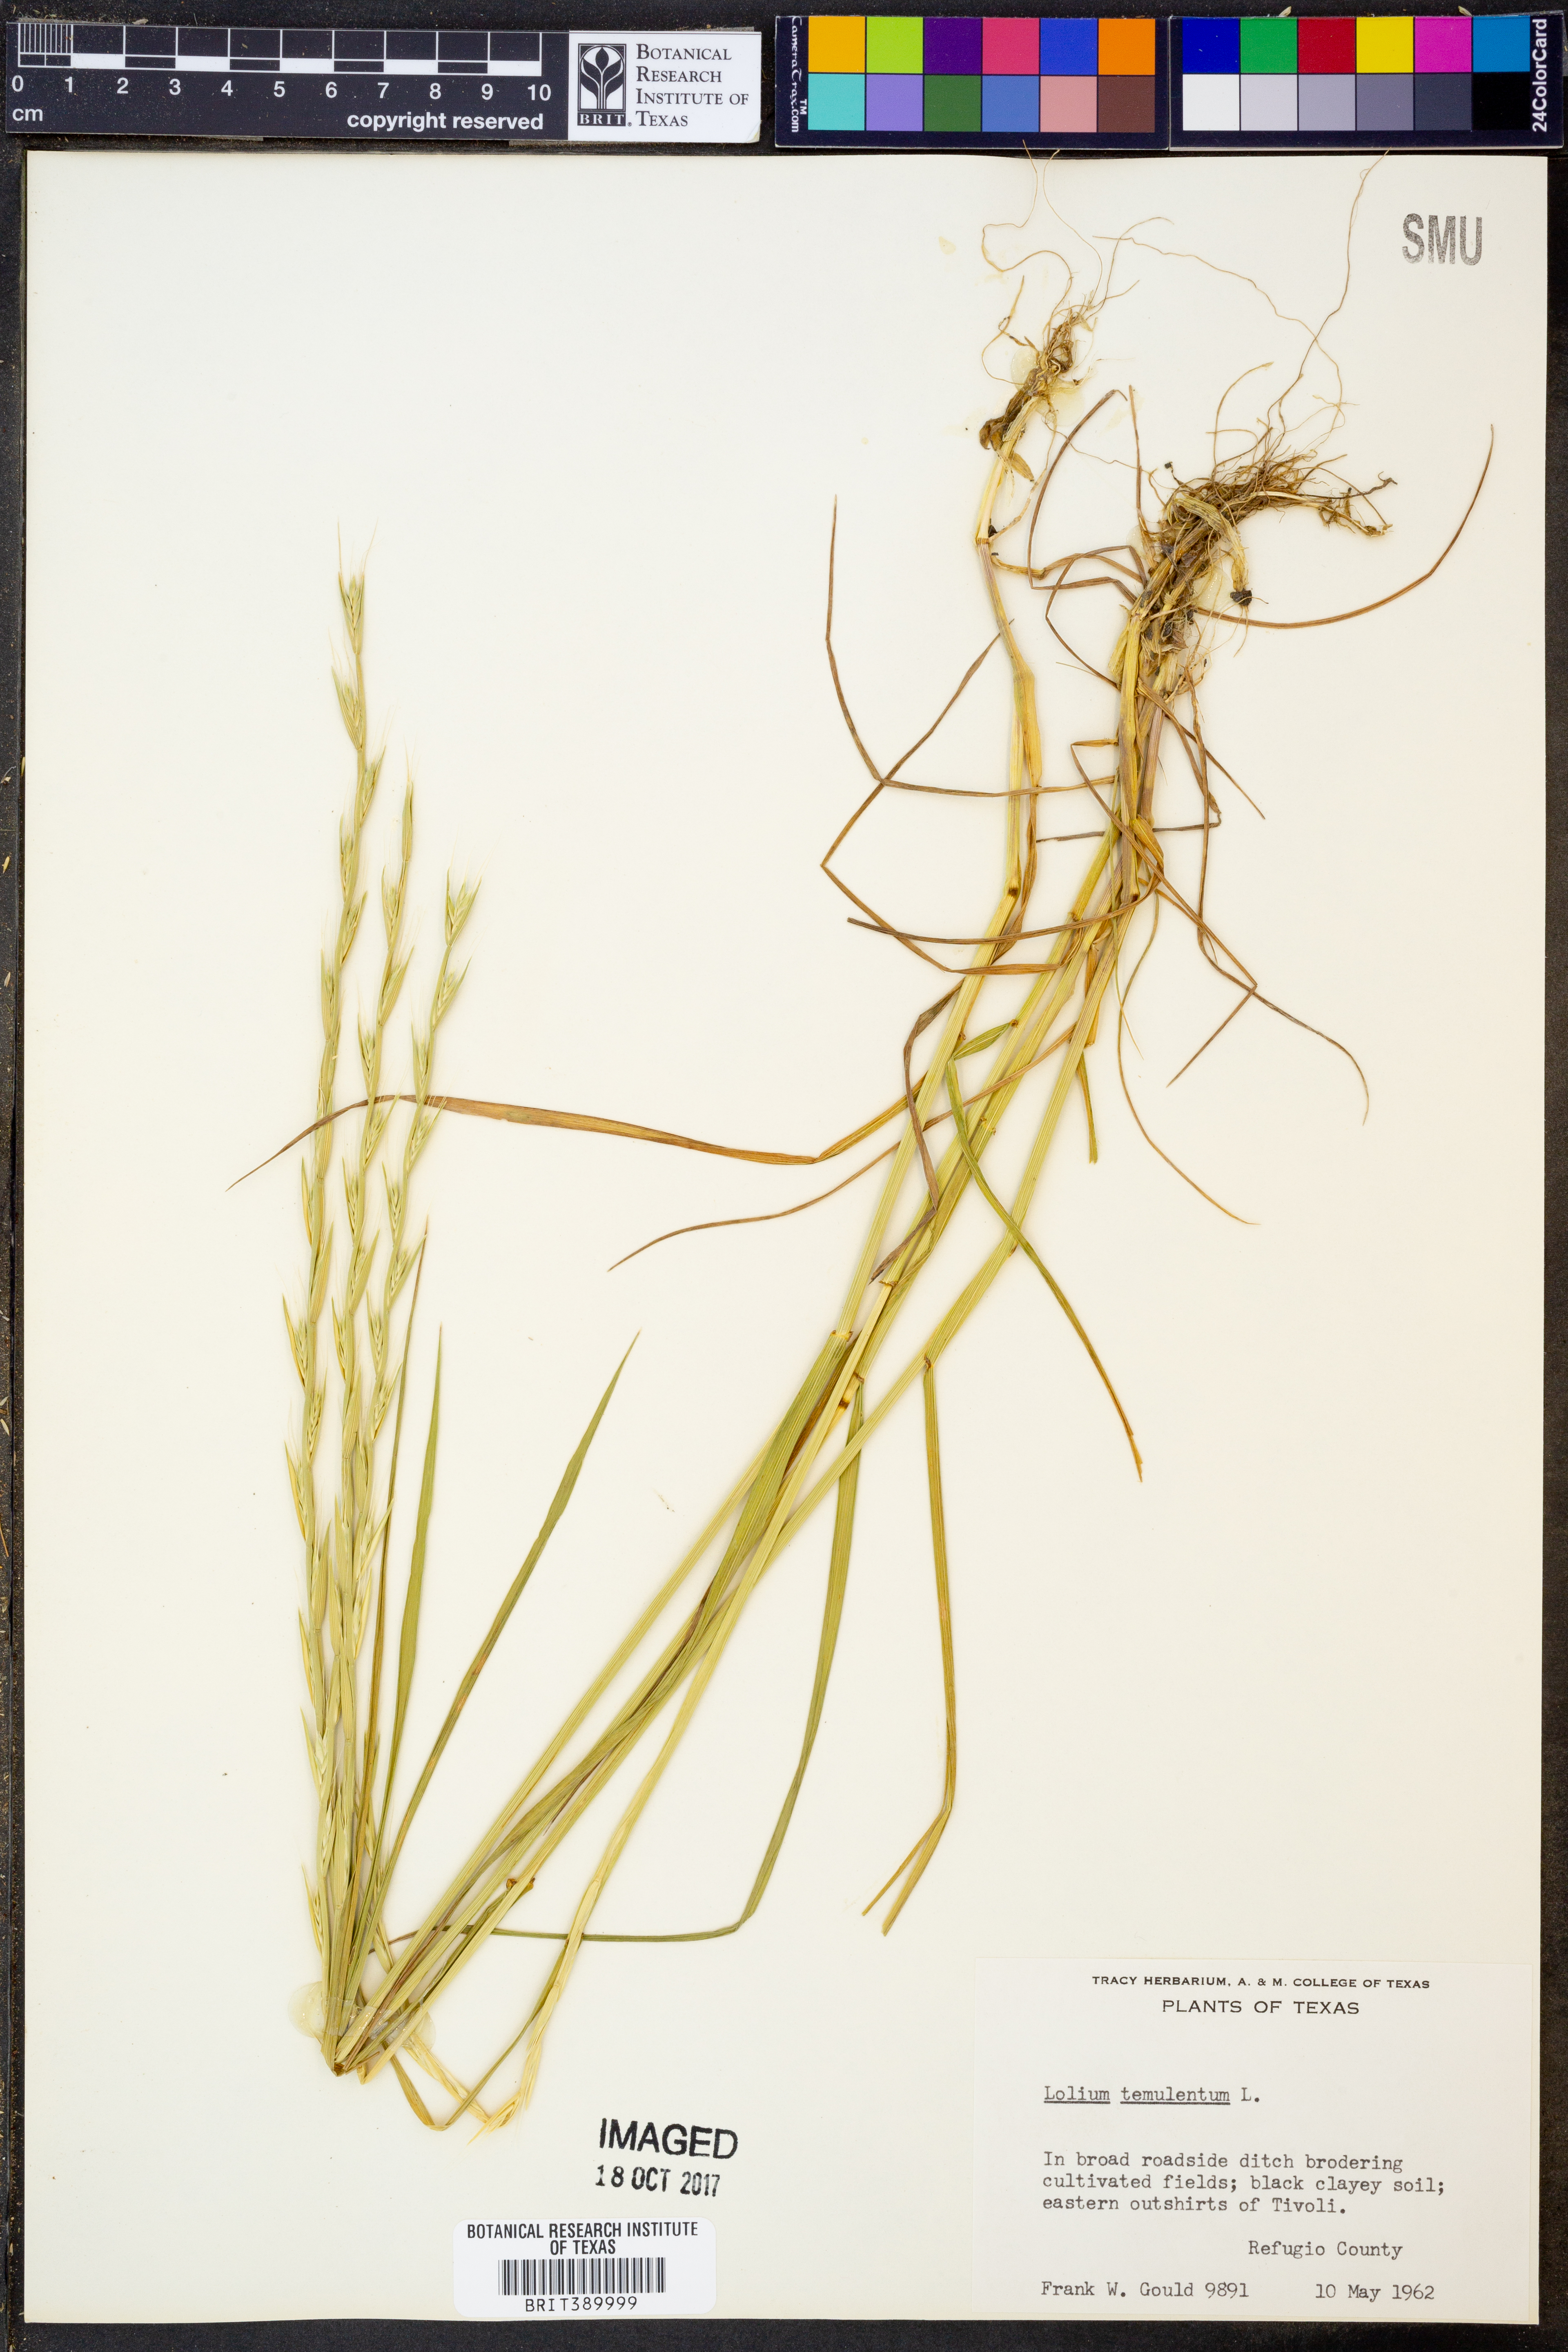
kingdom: Plantae
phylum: Tracheophyta
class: Liliopsida
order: Poales
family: Poaceae
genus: Lolium
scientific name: Lolium temulentum
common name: Darnel
